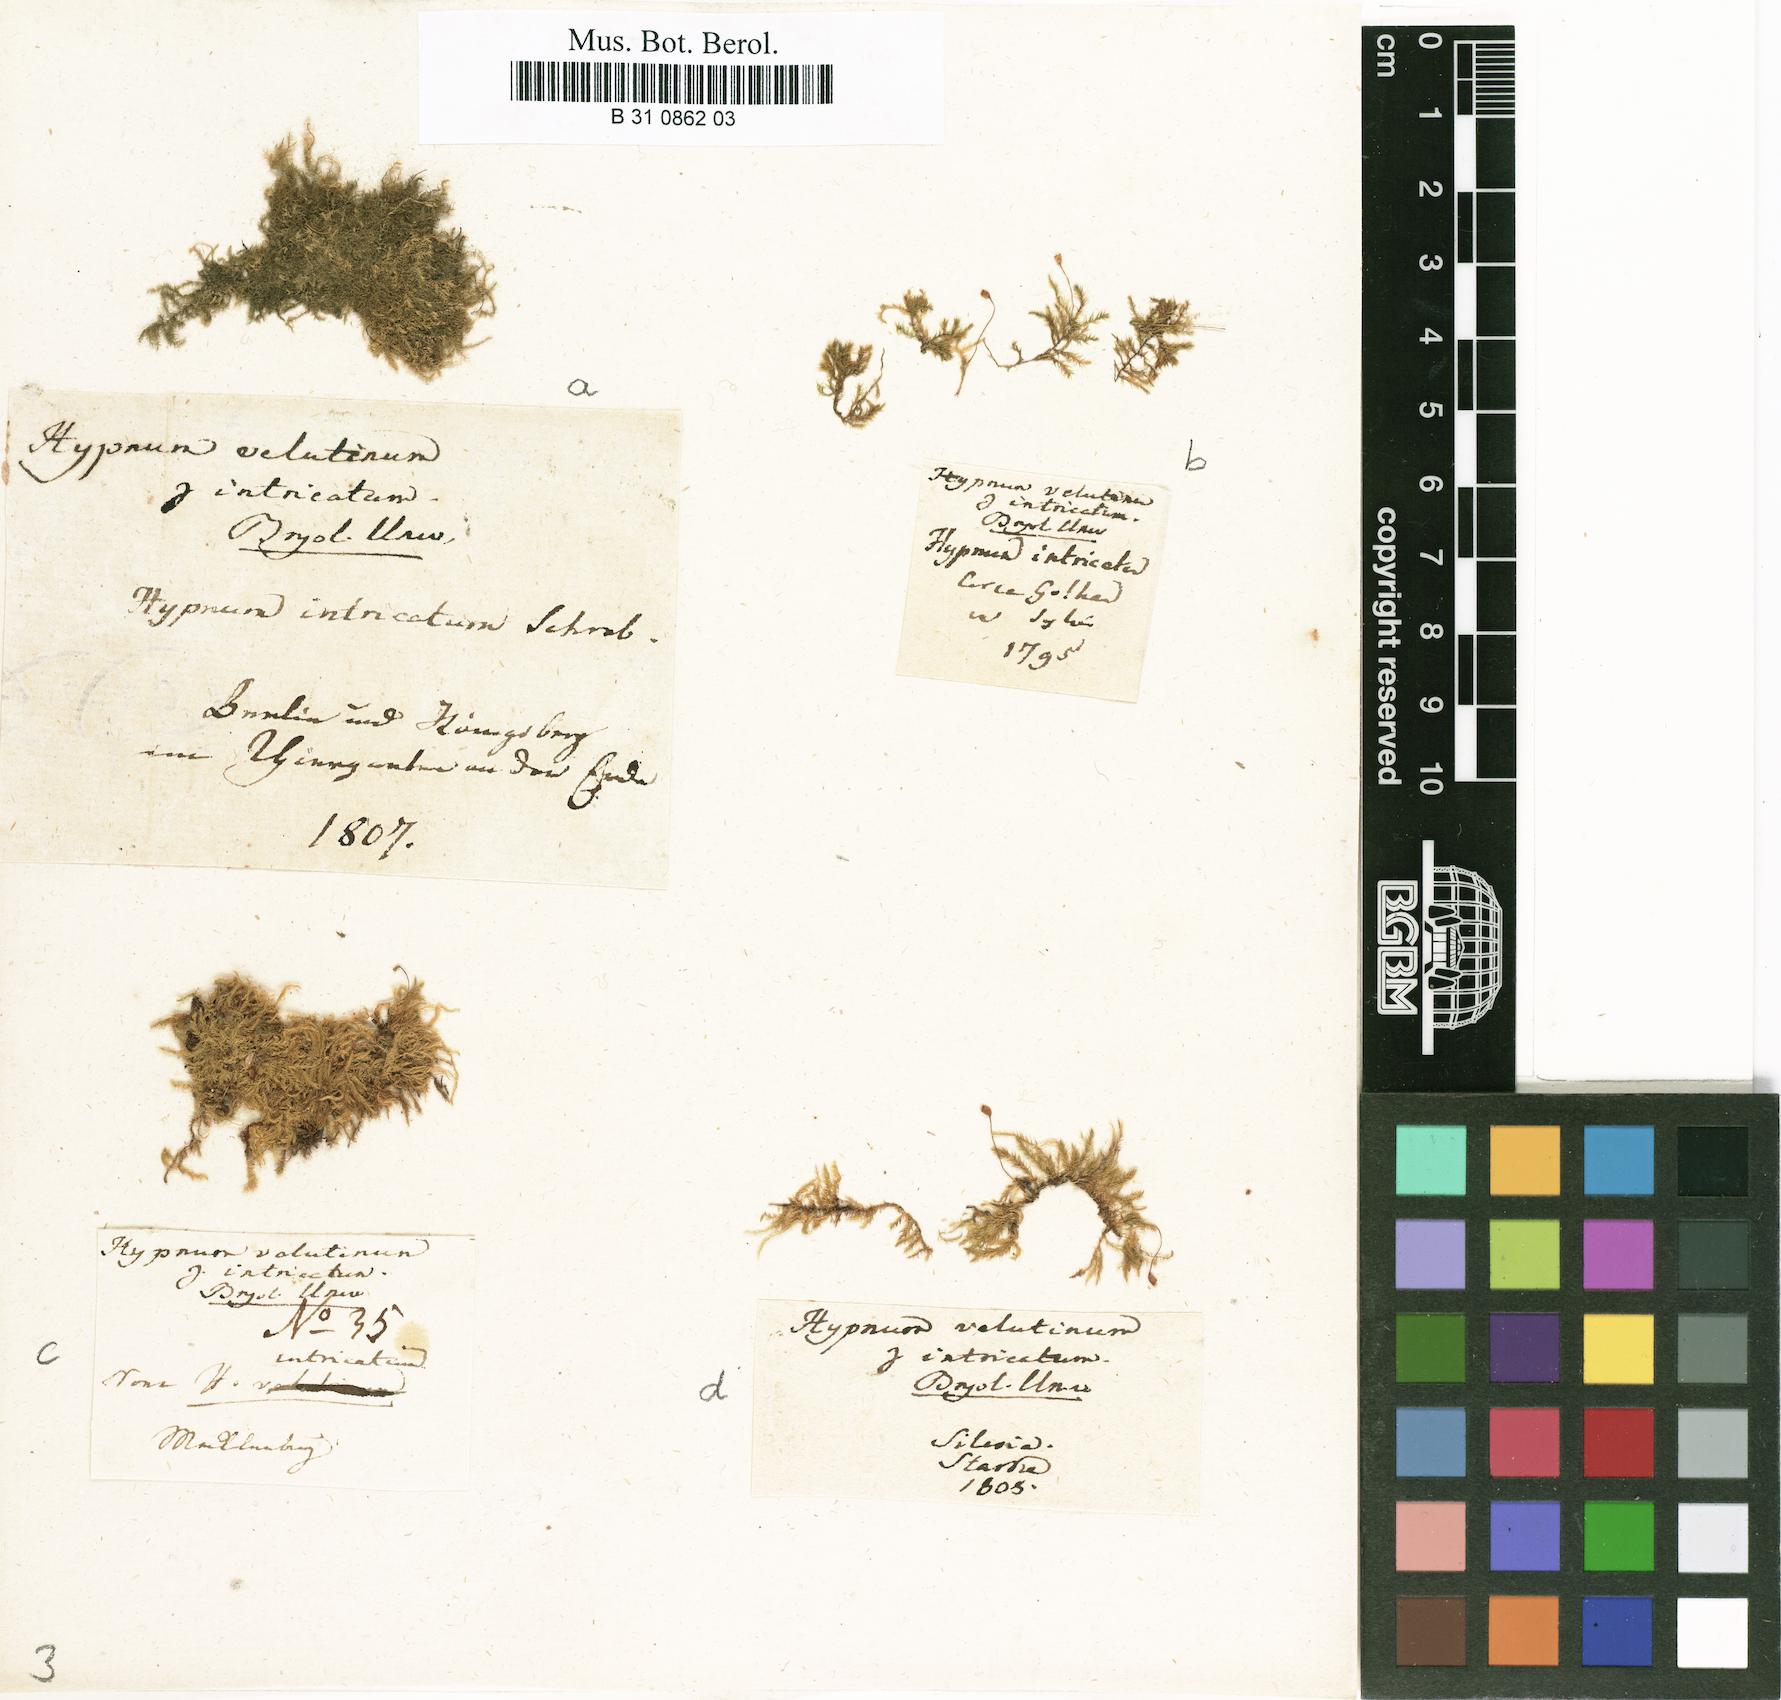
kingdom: Plantae
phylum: Bryophyta
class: Bryopsida
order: Hypnales
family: Brachytheciaceae
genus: Brachytheciastrum
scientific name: Brachytheciastrum velutinum
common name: Velvet feather-moss
